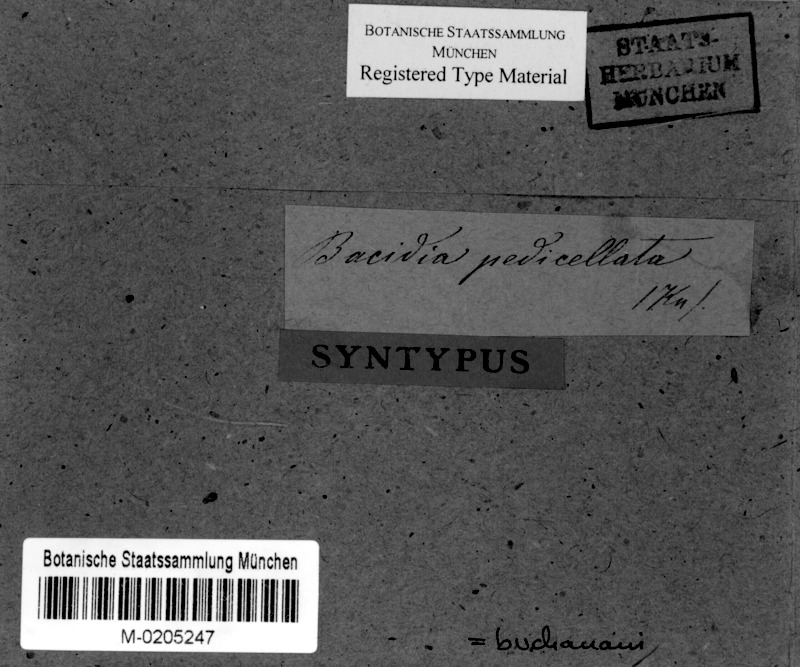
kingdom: Fungi
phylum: Ascomycota
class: Lecanoromycetes
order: Lecanorales
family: Byssolomataceae
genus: Bapalmuia
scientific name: Bapalmuia buchananii
